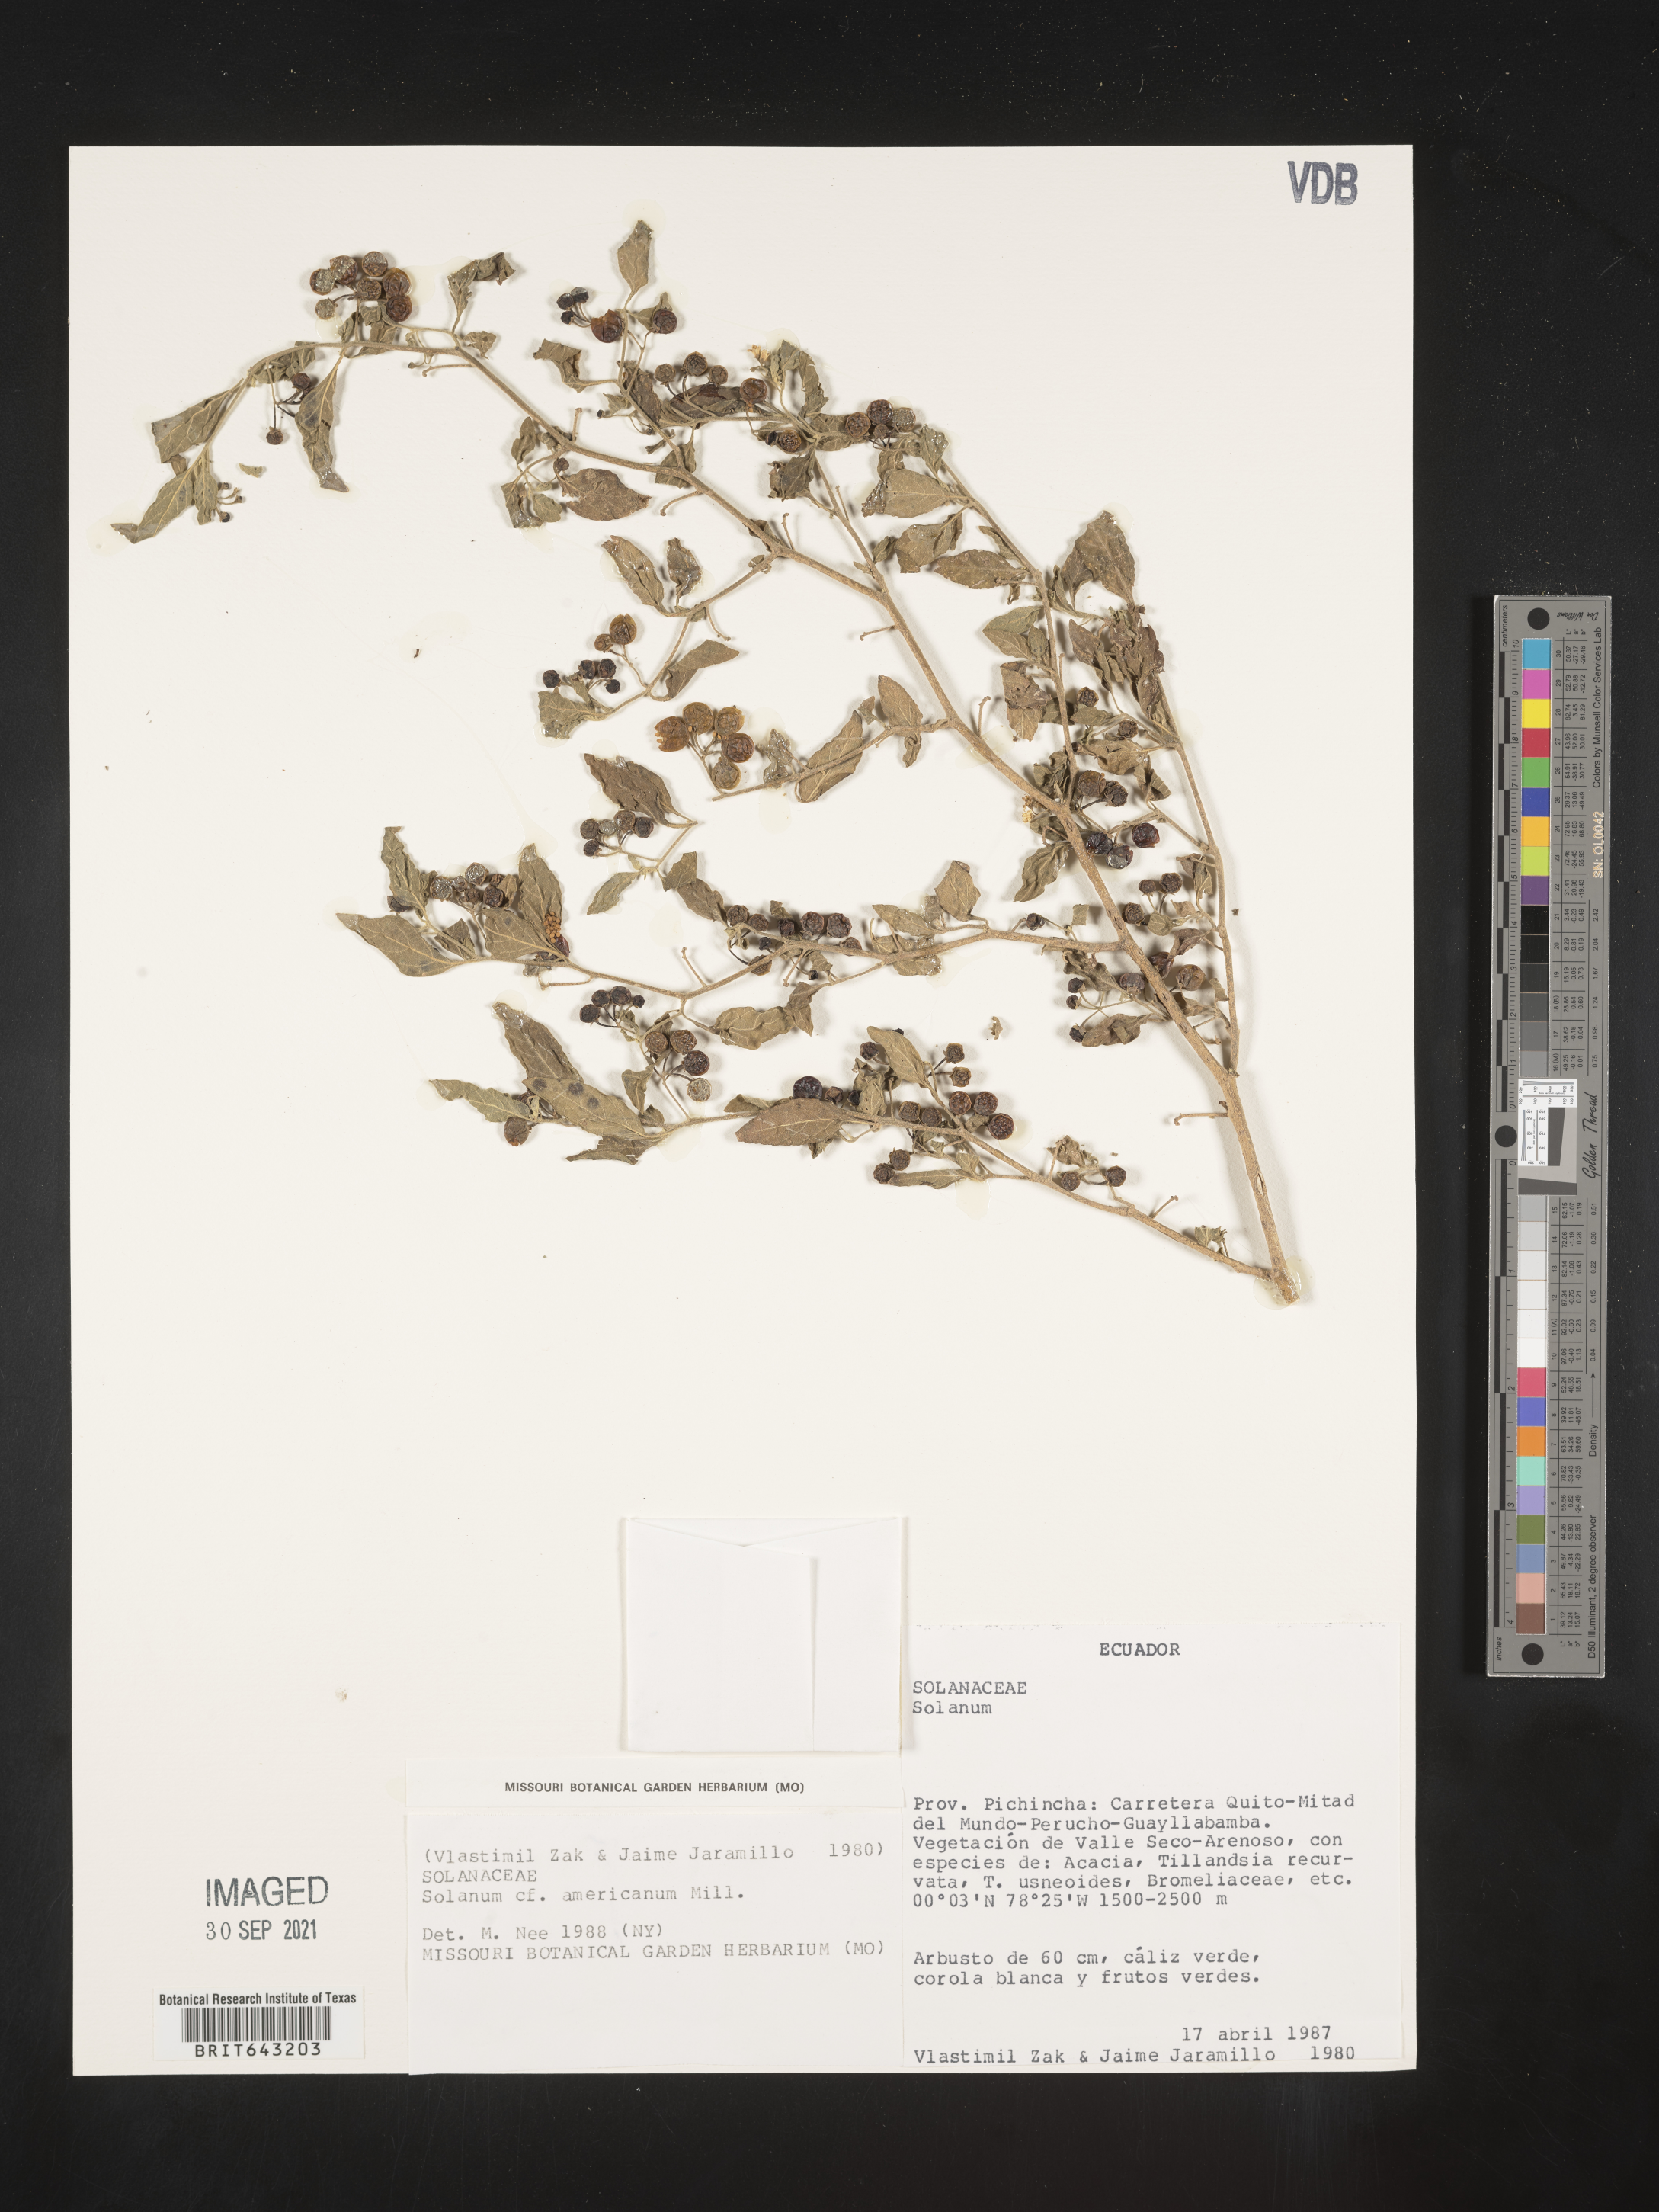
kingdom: Plantae
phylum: Tracheophyta
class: Magnoliopsida
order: Solanales
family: Solanaceae
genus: Solanum
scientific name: Solanum
